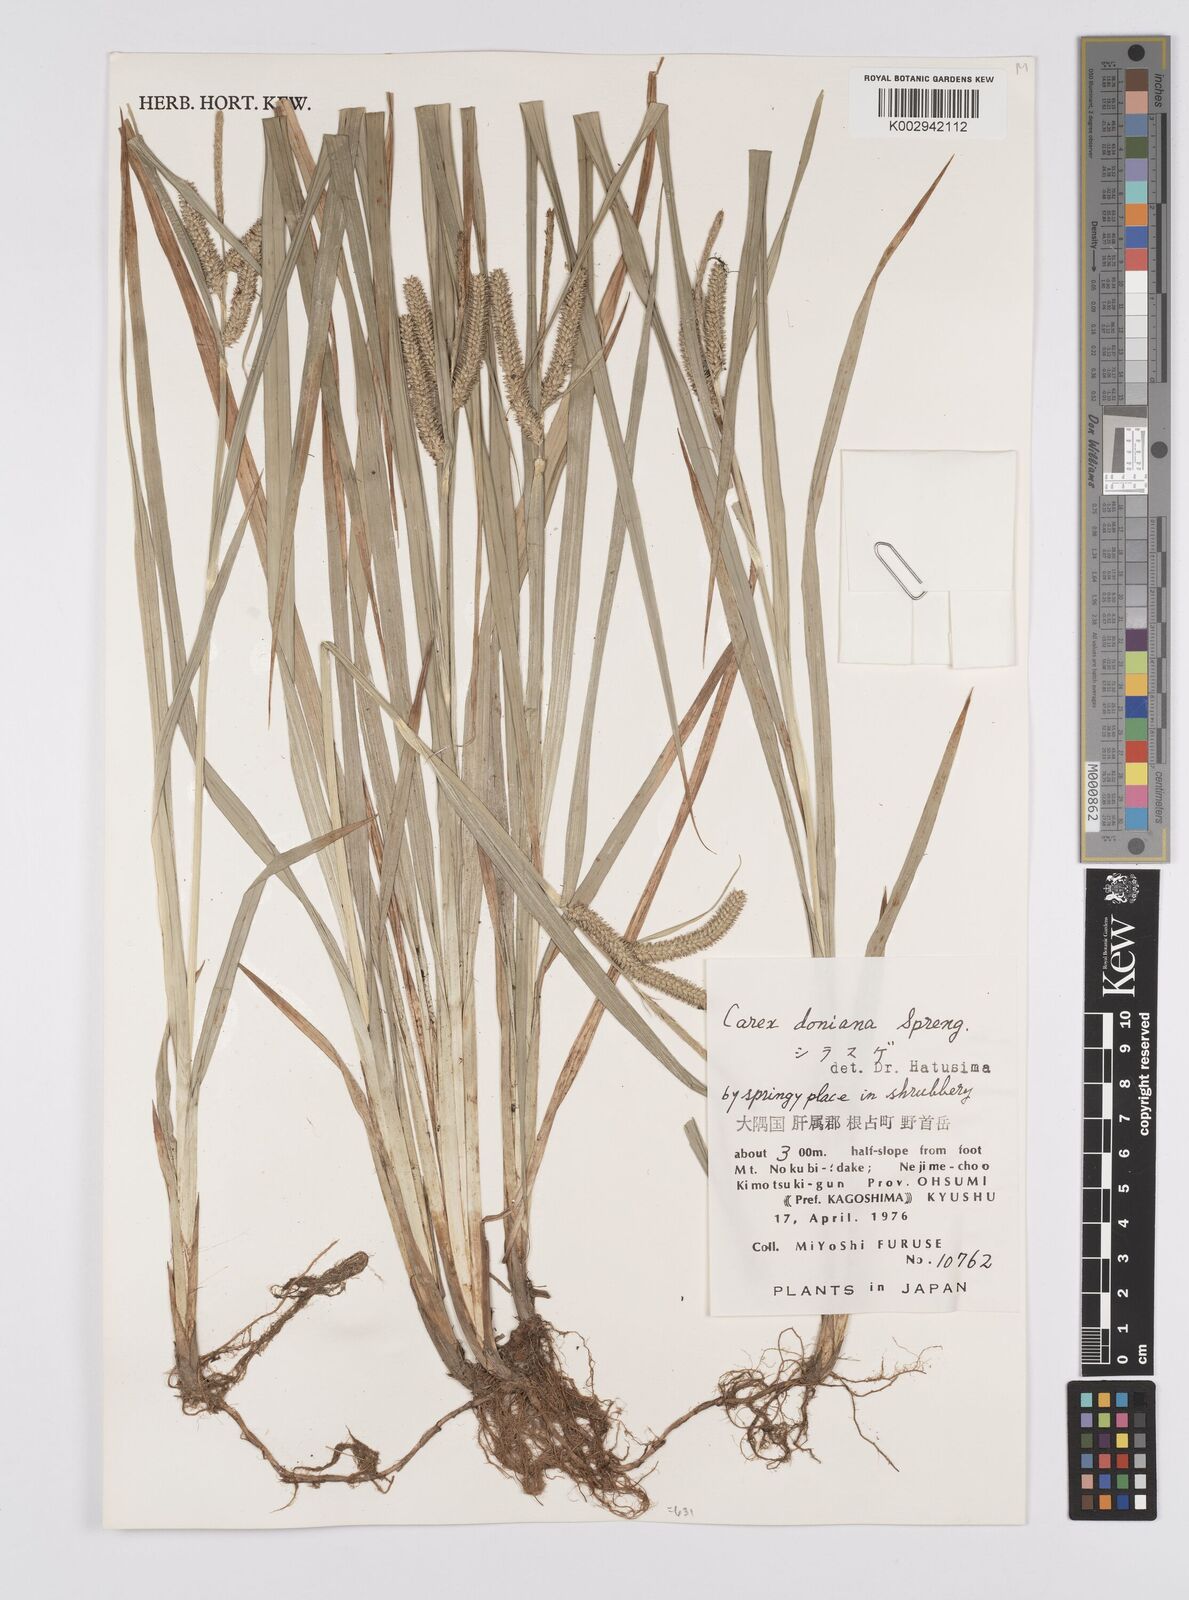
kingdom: Plantae
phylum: Tracheophyta
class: Liliopsida
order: Poales
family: Cyperaceae
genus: Carex
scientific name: Carex japonica
